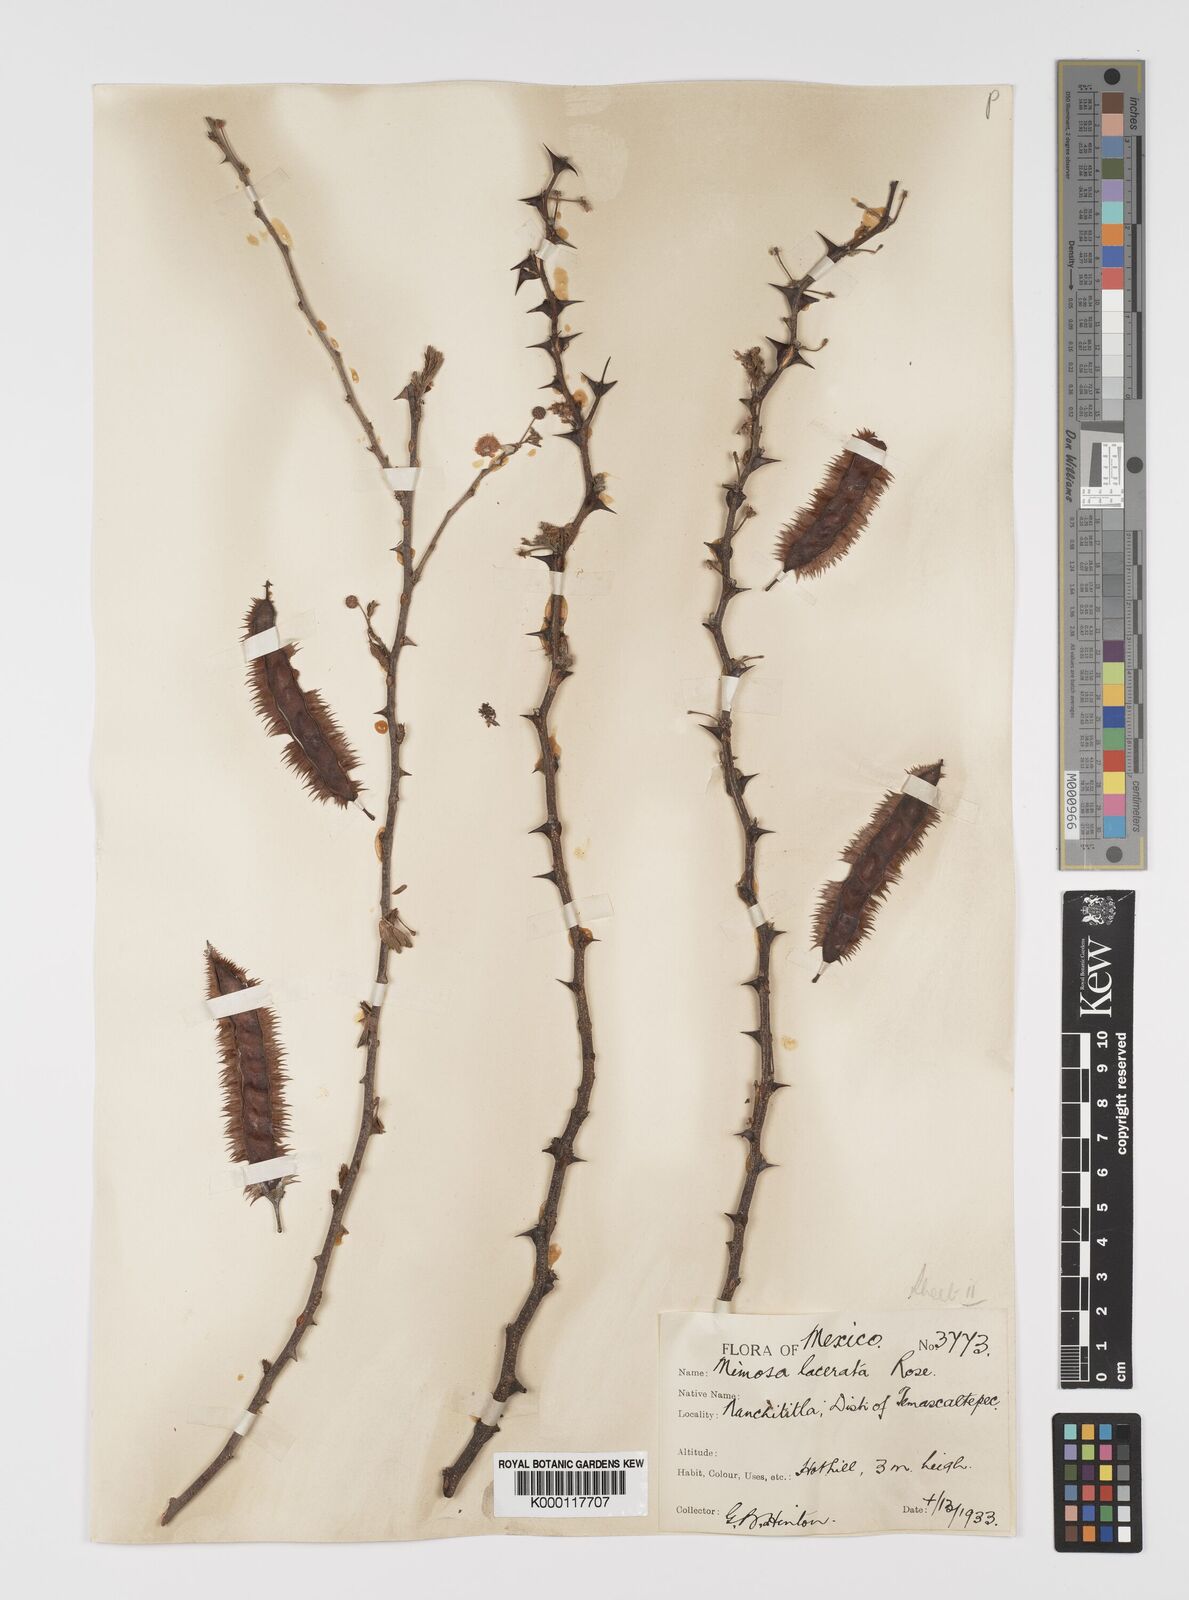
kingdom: Plantae
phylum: Tracheophyta
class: Magnoliopsida
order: Fabales
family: Fabaceae
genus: Mimosa
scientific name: Mimosa lacerata
